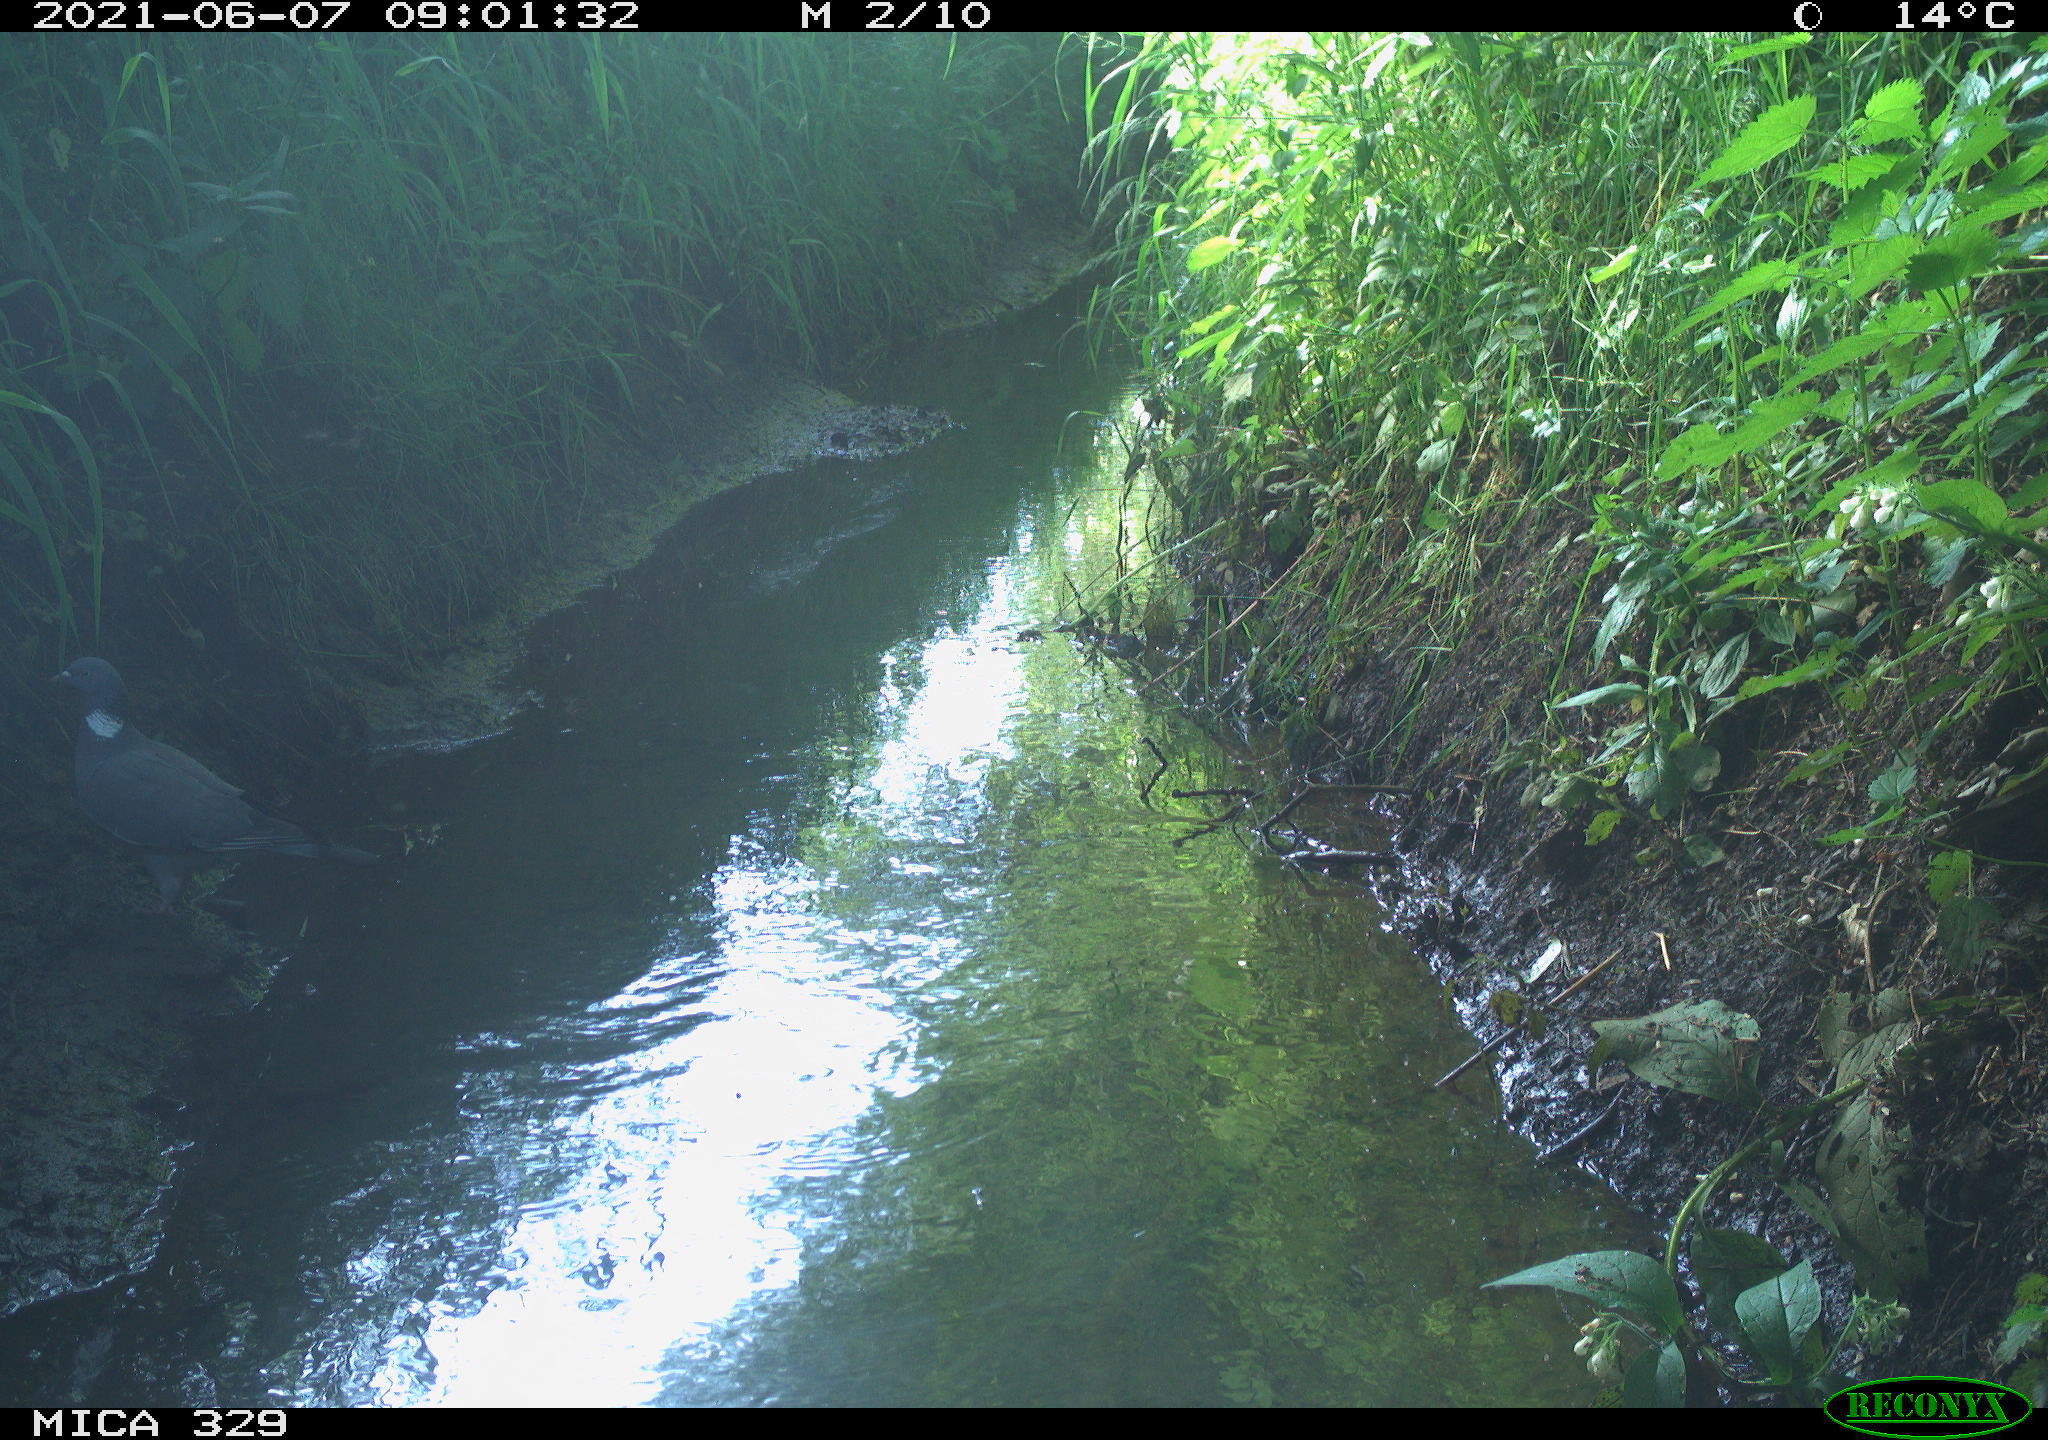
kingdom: Animalia
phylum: Chordata
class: Aves
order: Columbiformes
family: Columbidae
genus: Columba
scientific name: Columba palumbus
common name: Common wood pigeon
